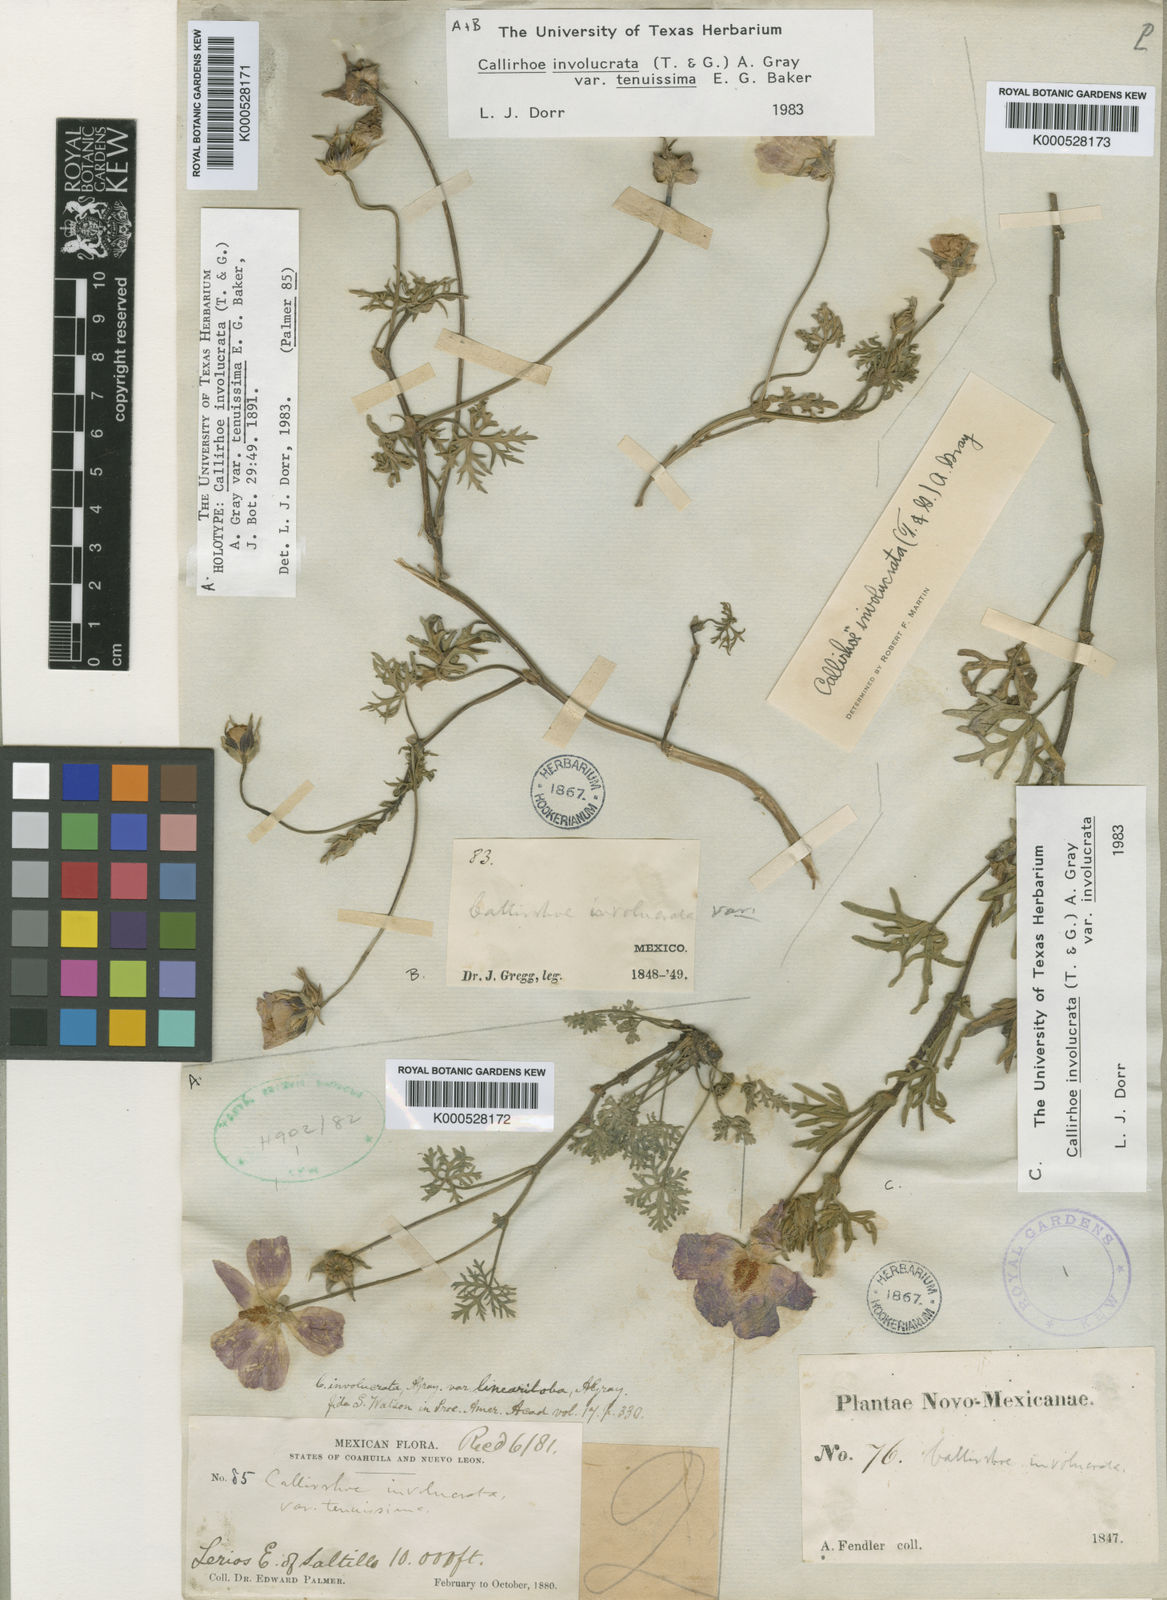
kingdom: Plantae
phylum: Tracheophyta
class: Magnoliopsida
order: Malvales
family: Malvaceae
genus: Callirhoe
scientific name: Callirhoe involucrata
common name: Purple poppy-mallow
